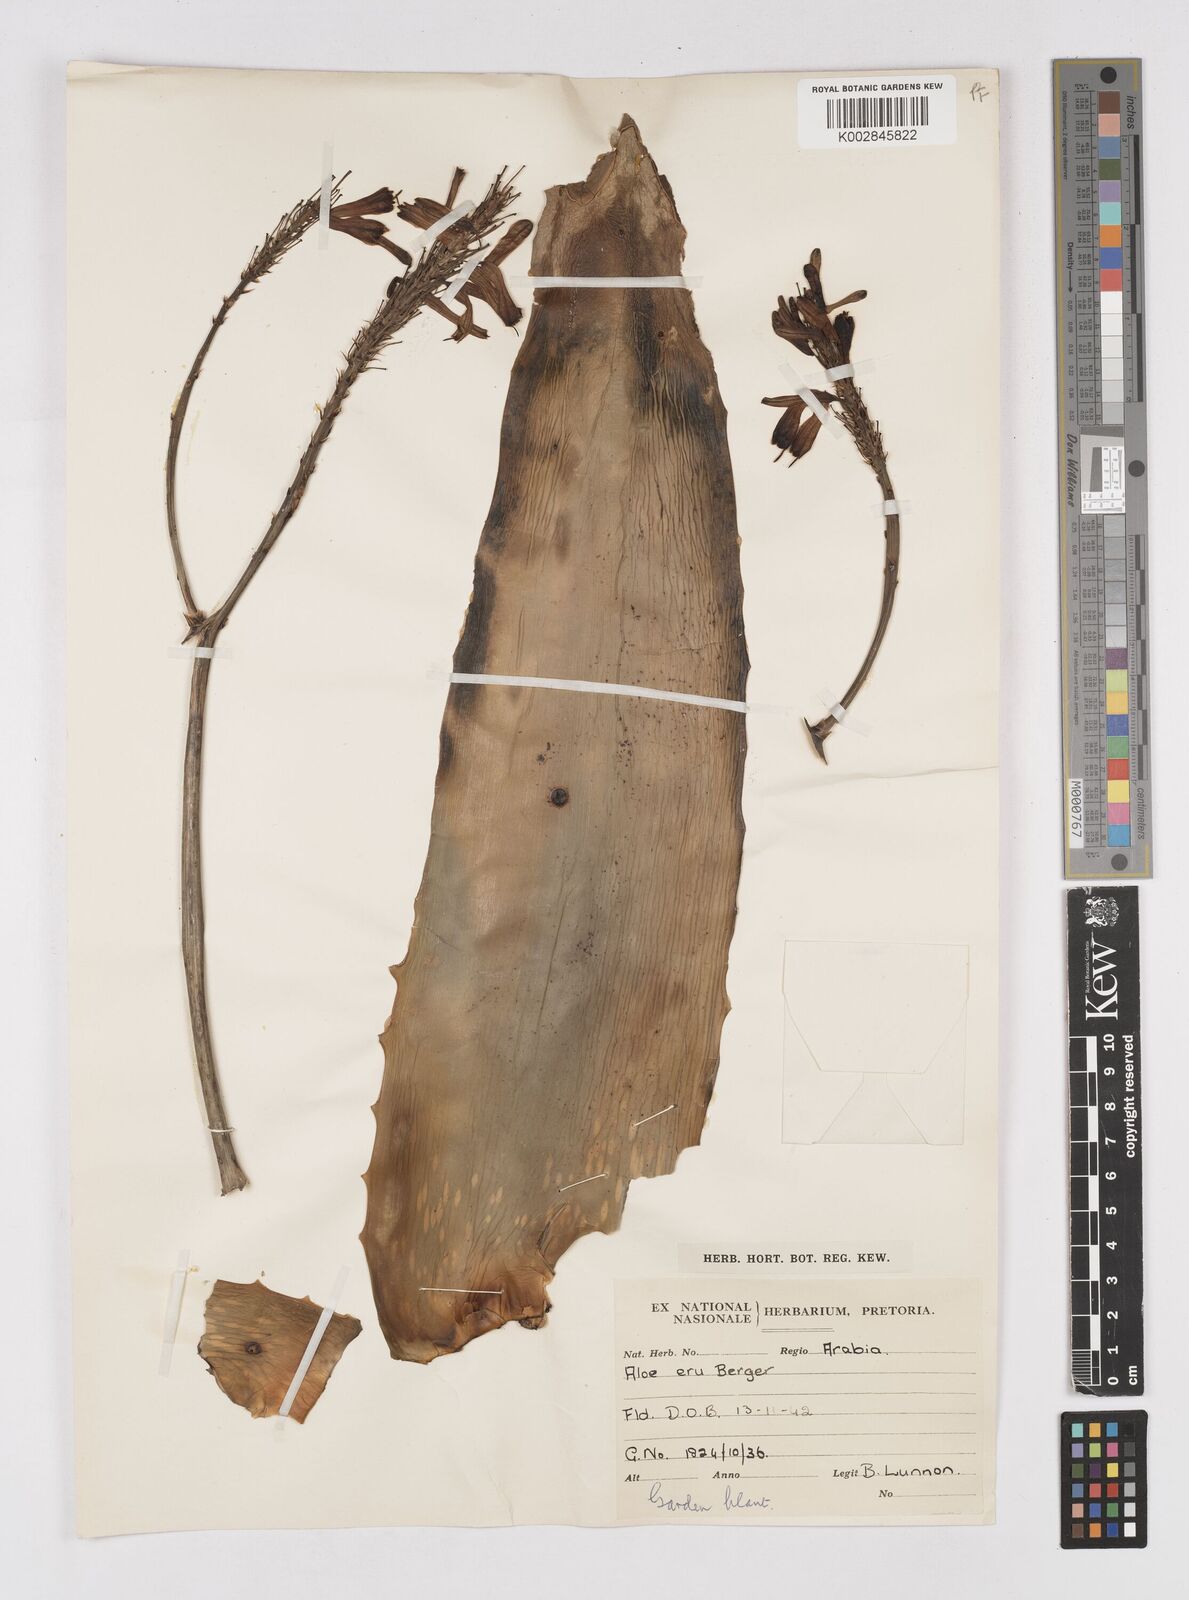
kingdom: Plantae
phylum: Tracheophyta
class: Liliopsida
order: Asparagales
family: Asphodelaceae
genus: Aloe
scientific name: Aloe camperi
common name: Camper's aloe
